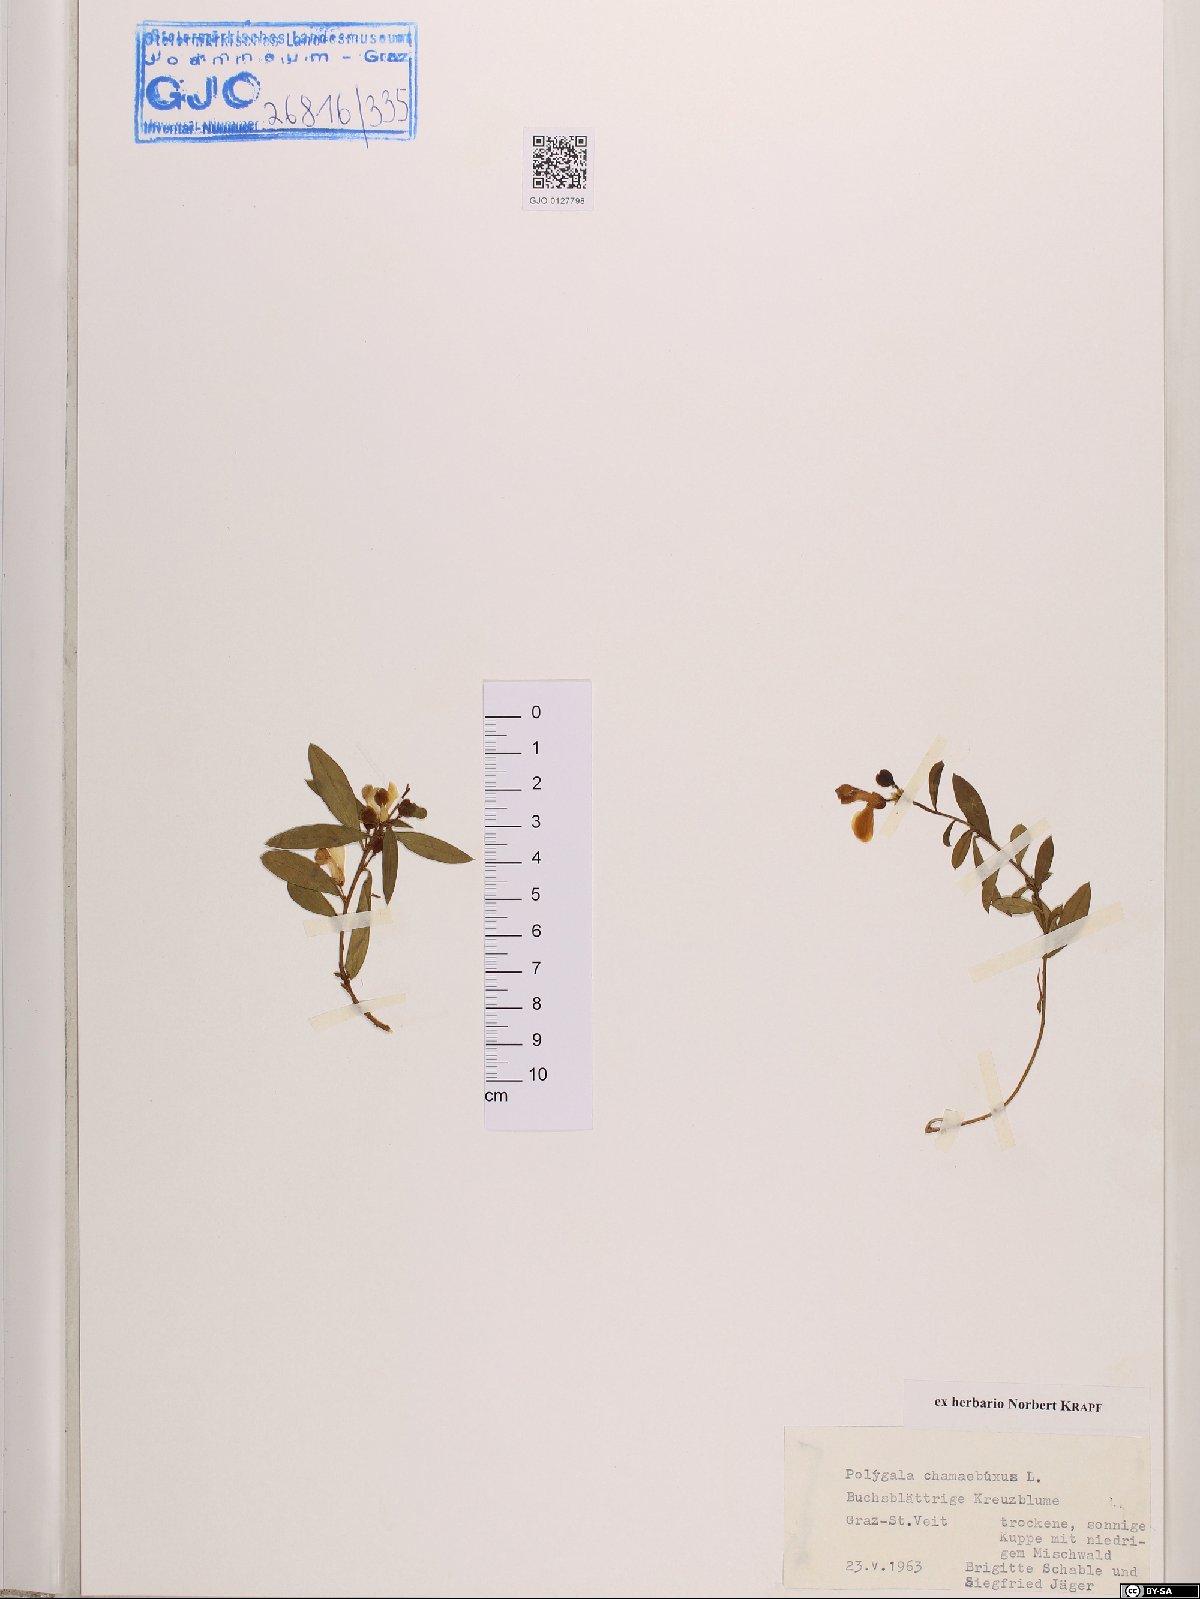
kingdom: Plantae
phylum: Tracheophyta
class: Magnoliopsida
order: Fabales
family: Polygalaceae
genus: Polygaloides
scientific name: Polygaloides chamaebuxus
